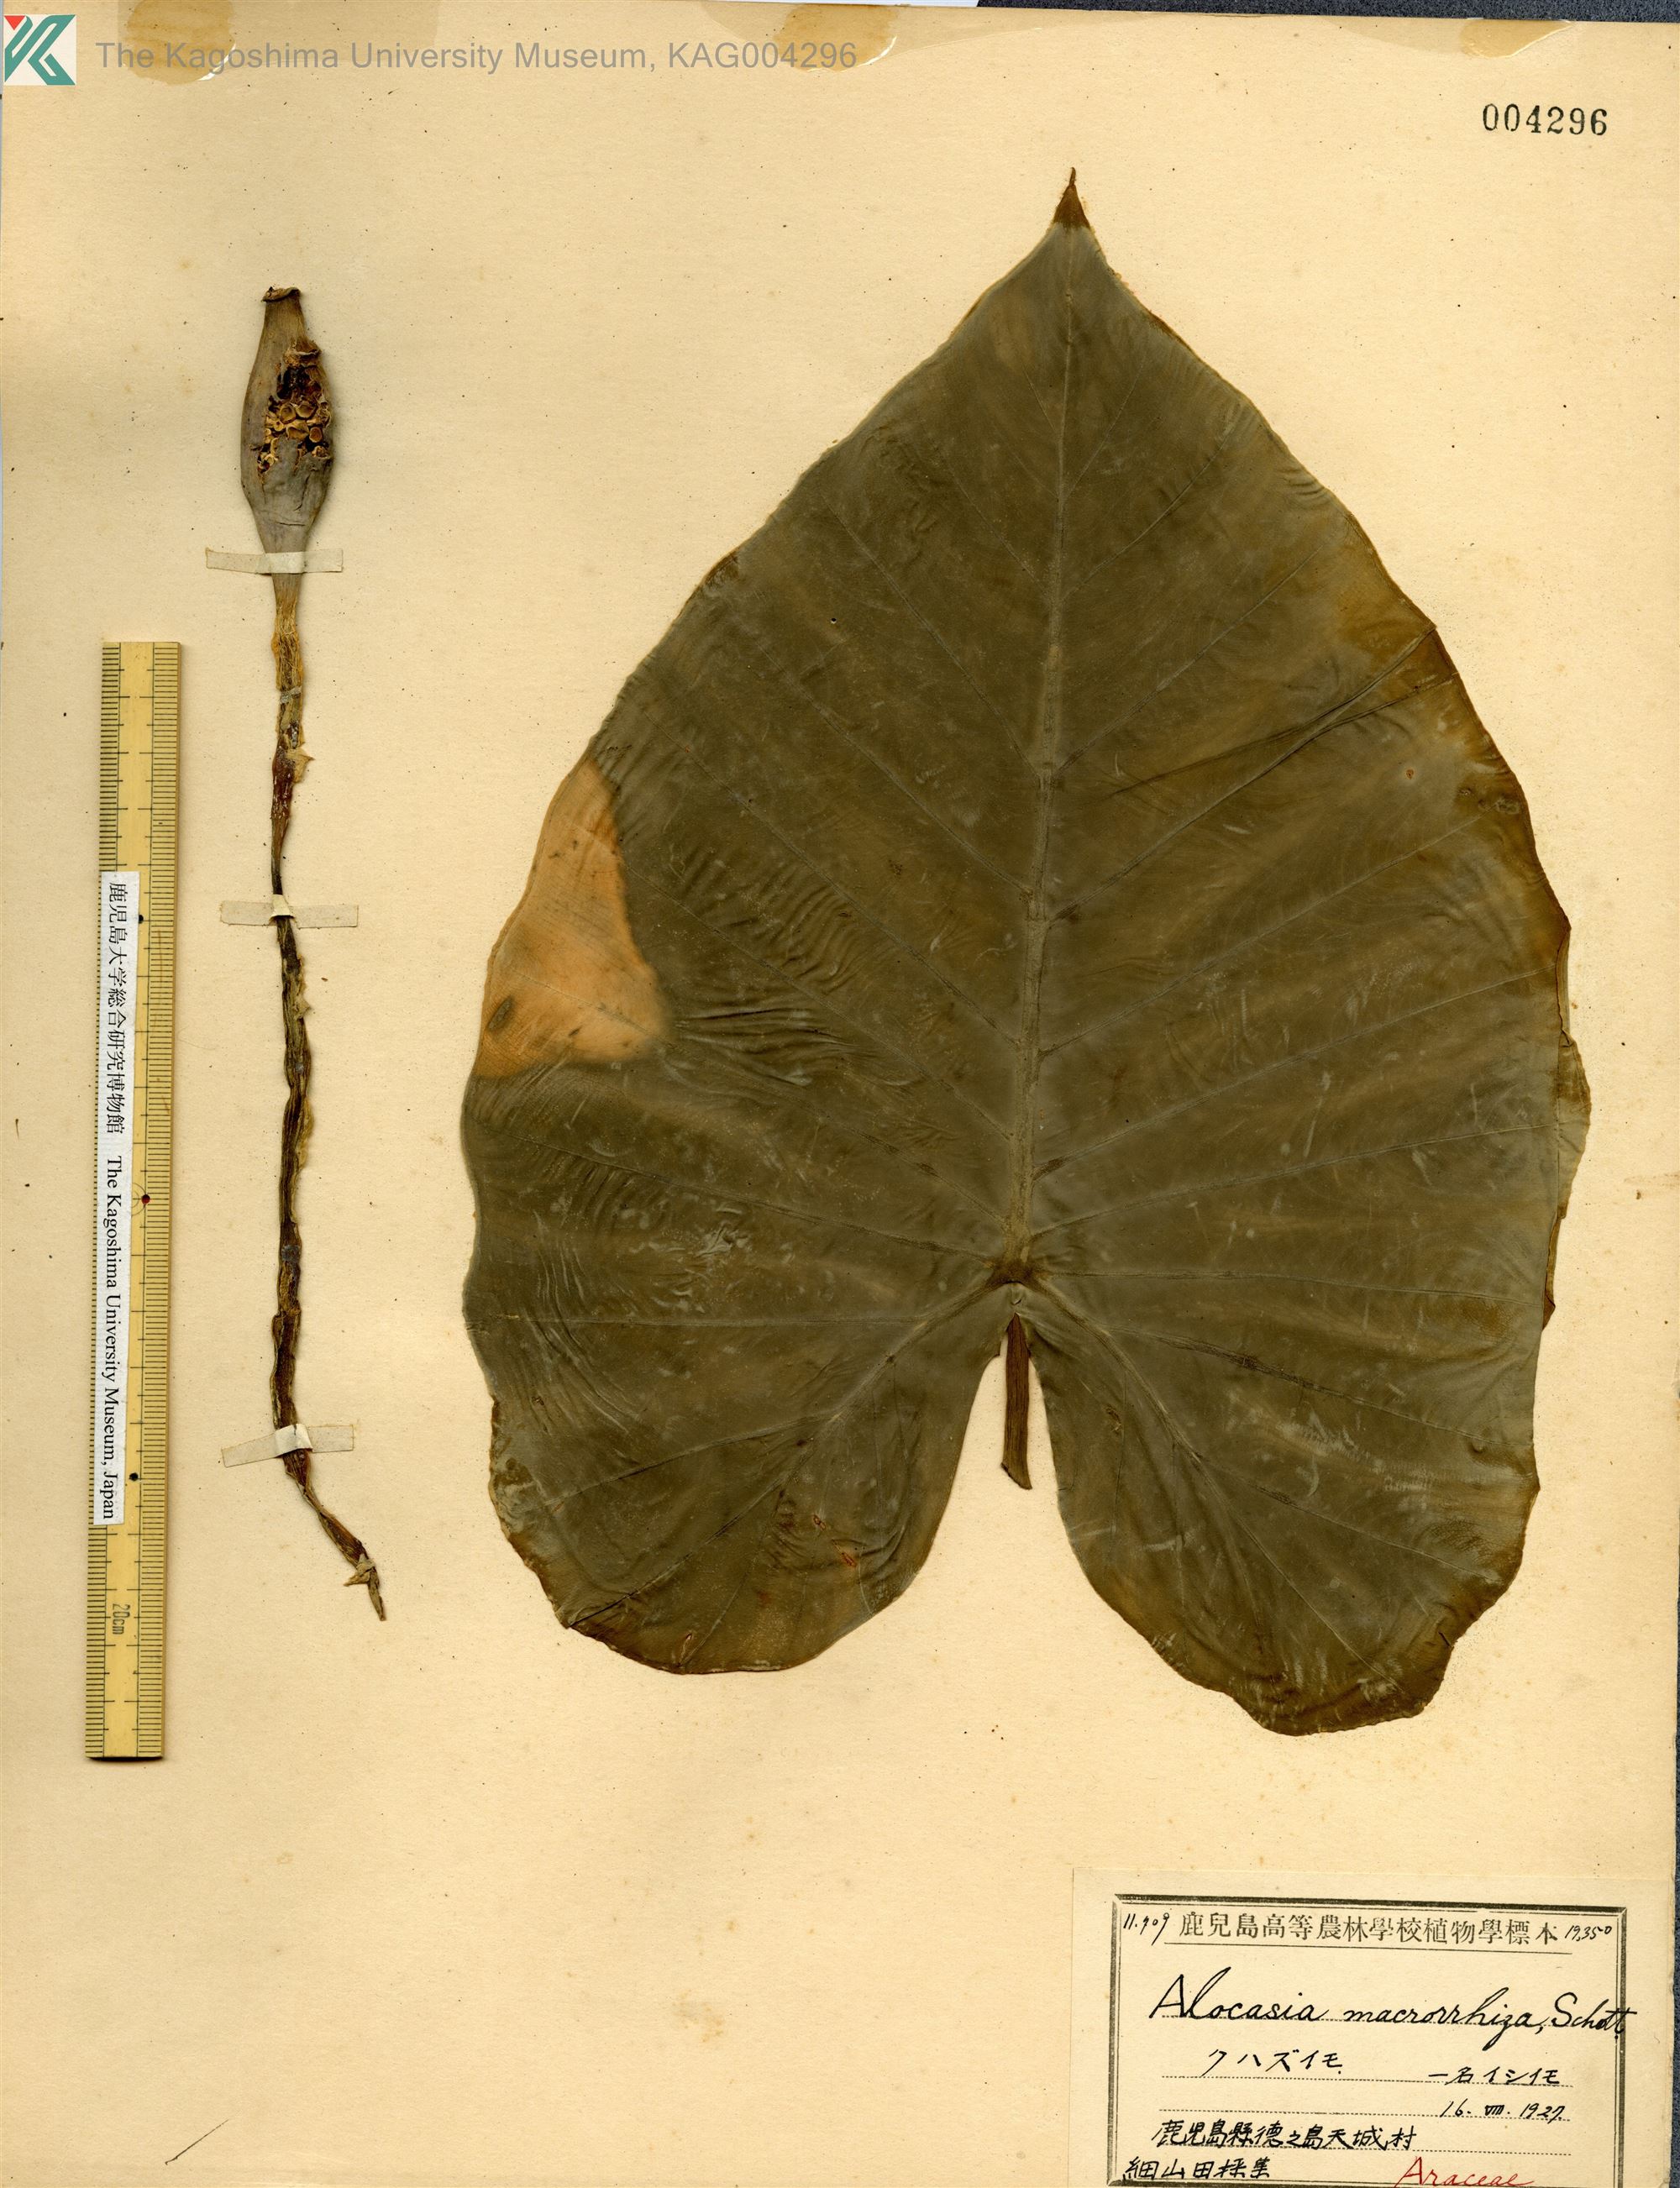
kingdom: Plantae
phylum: Tracheophyta
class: Liliopsida
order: Alismatales
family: Araceae
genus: Alocasia
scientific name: Alocasia odora
